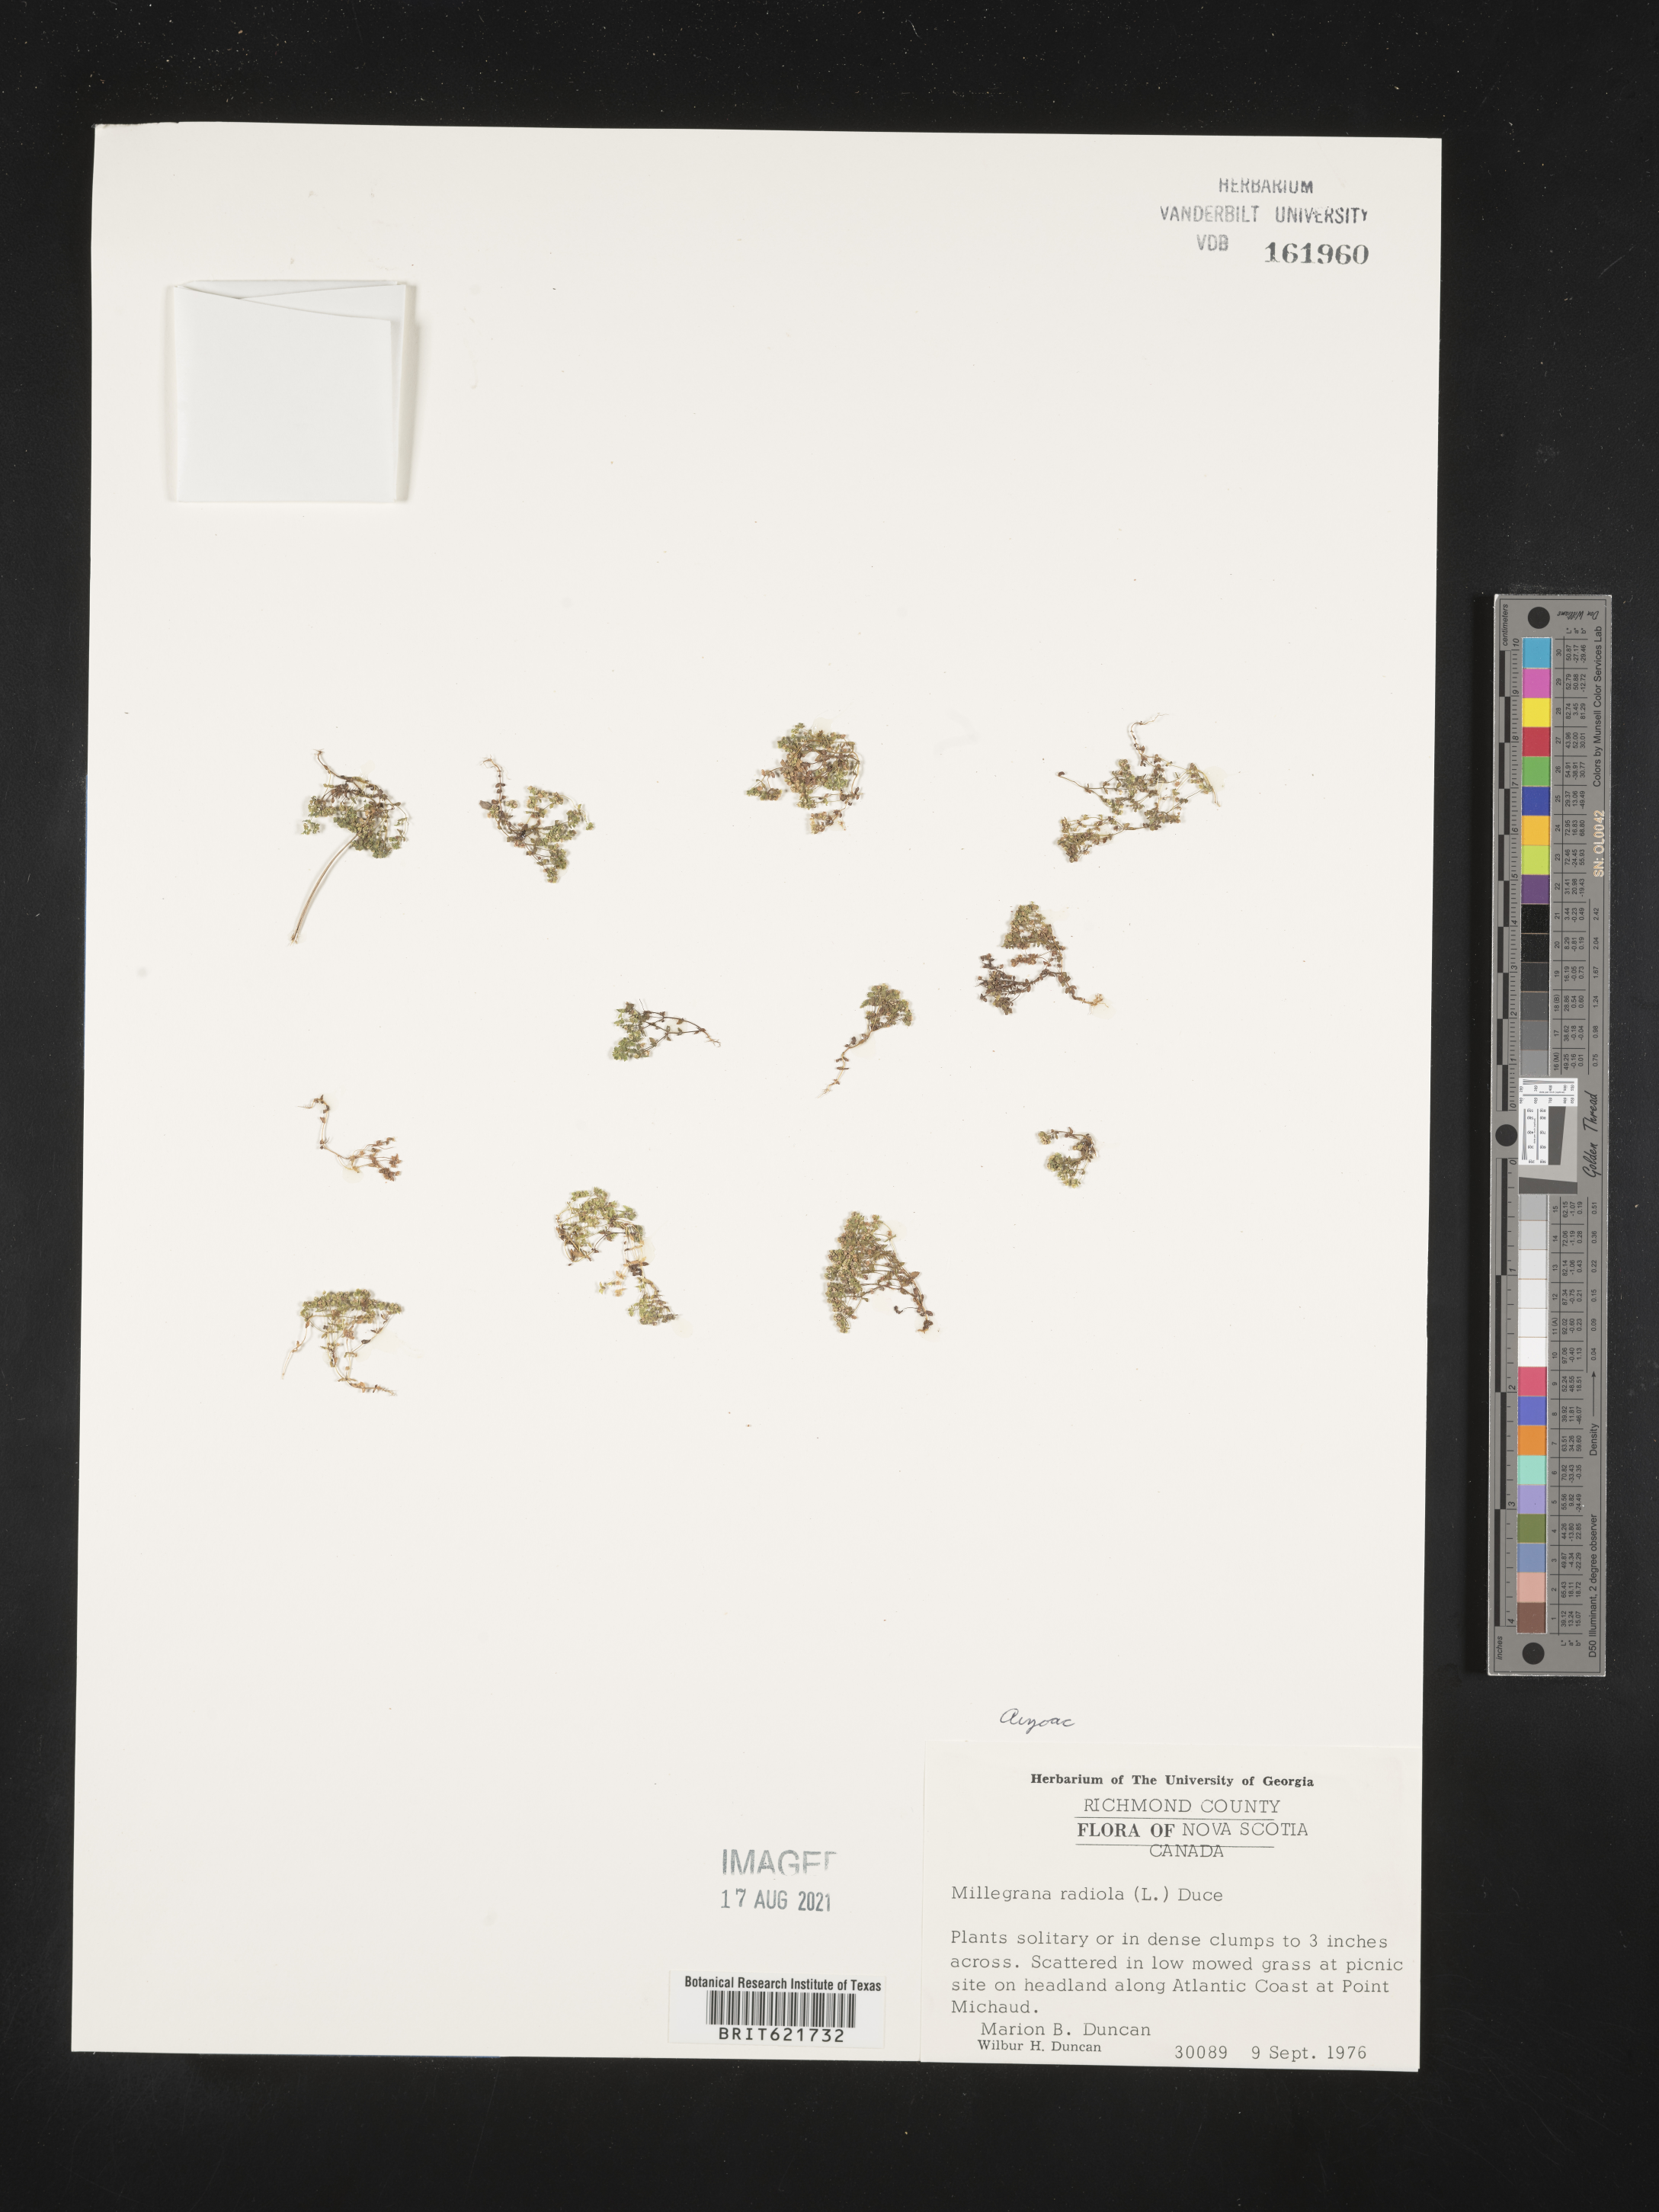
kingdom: Plantae
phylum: Tracheophyta
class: Magnoliopsida
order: Malpighiales
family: Linaceae
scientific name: Linaceae
